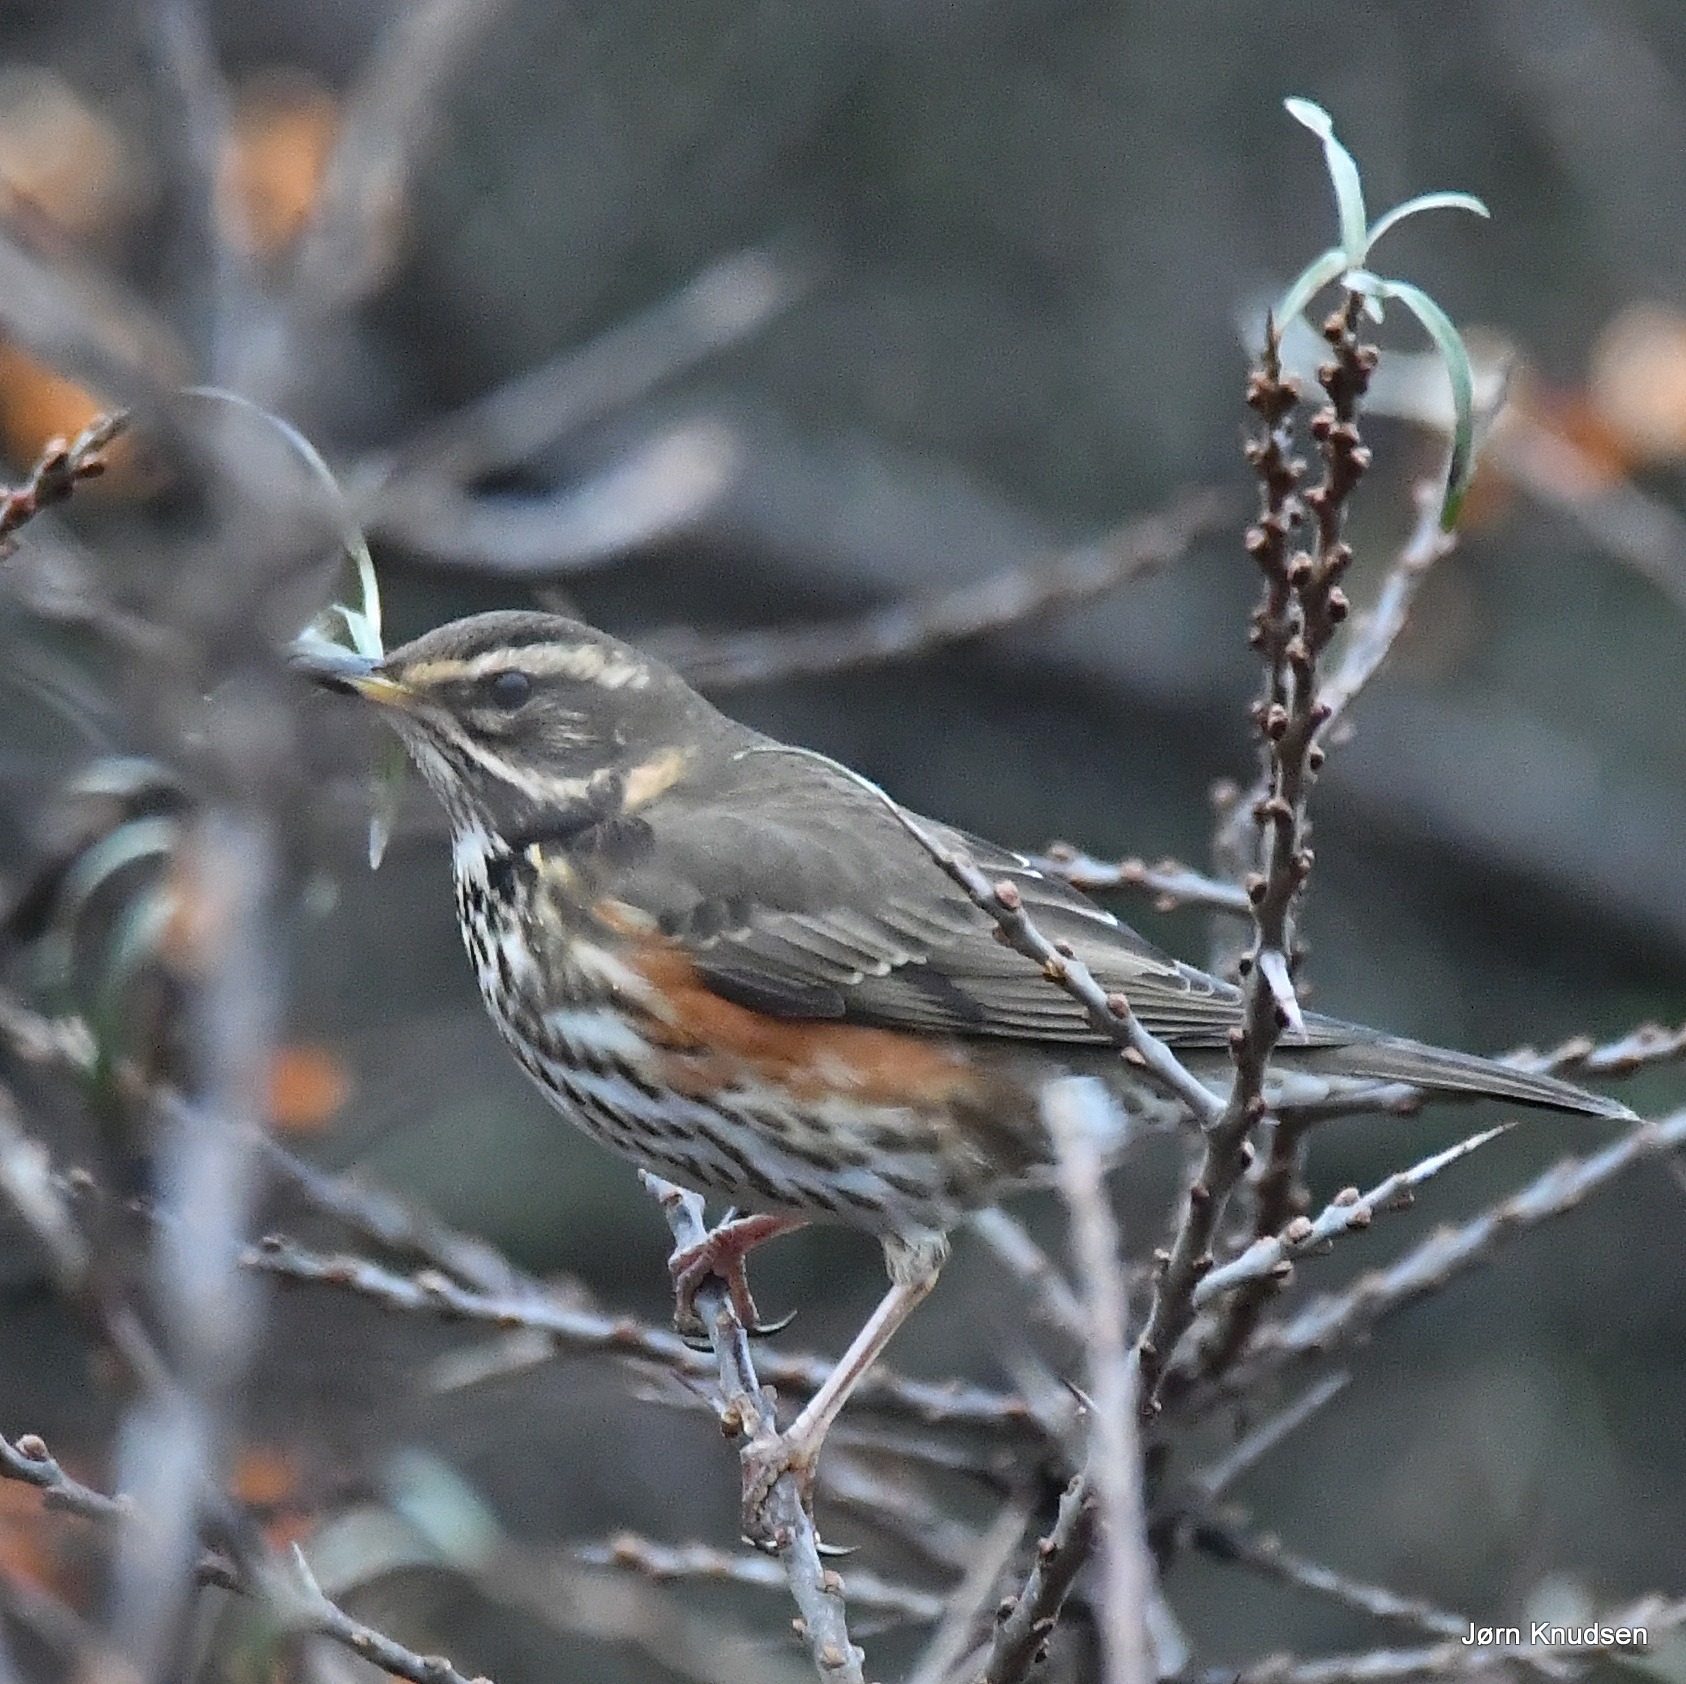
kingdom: Animalia
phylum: Chordata
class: Aves
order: Passeriformes
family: Turdidae
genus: Turdus
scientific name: Turdus iliacus
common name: Vindrossel
